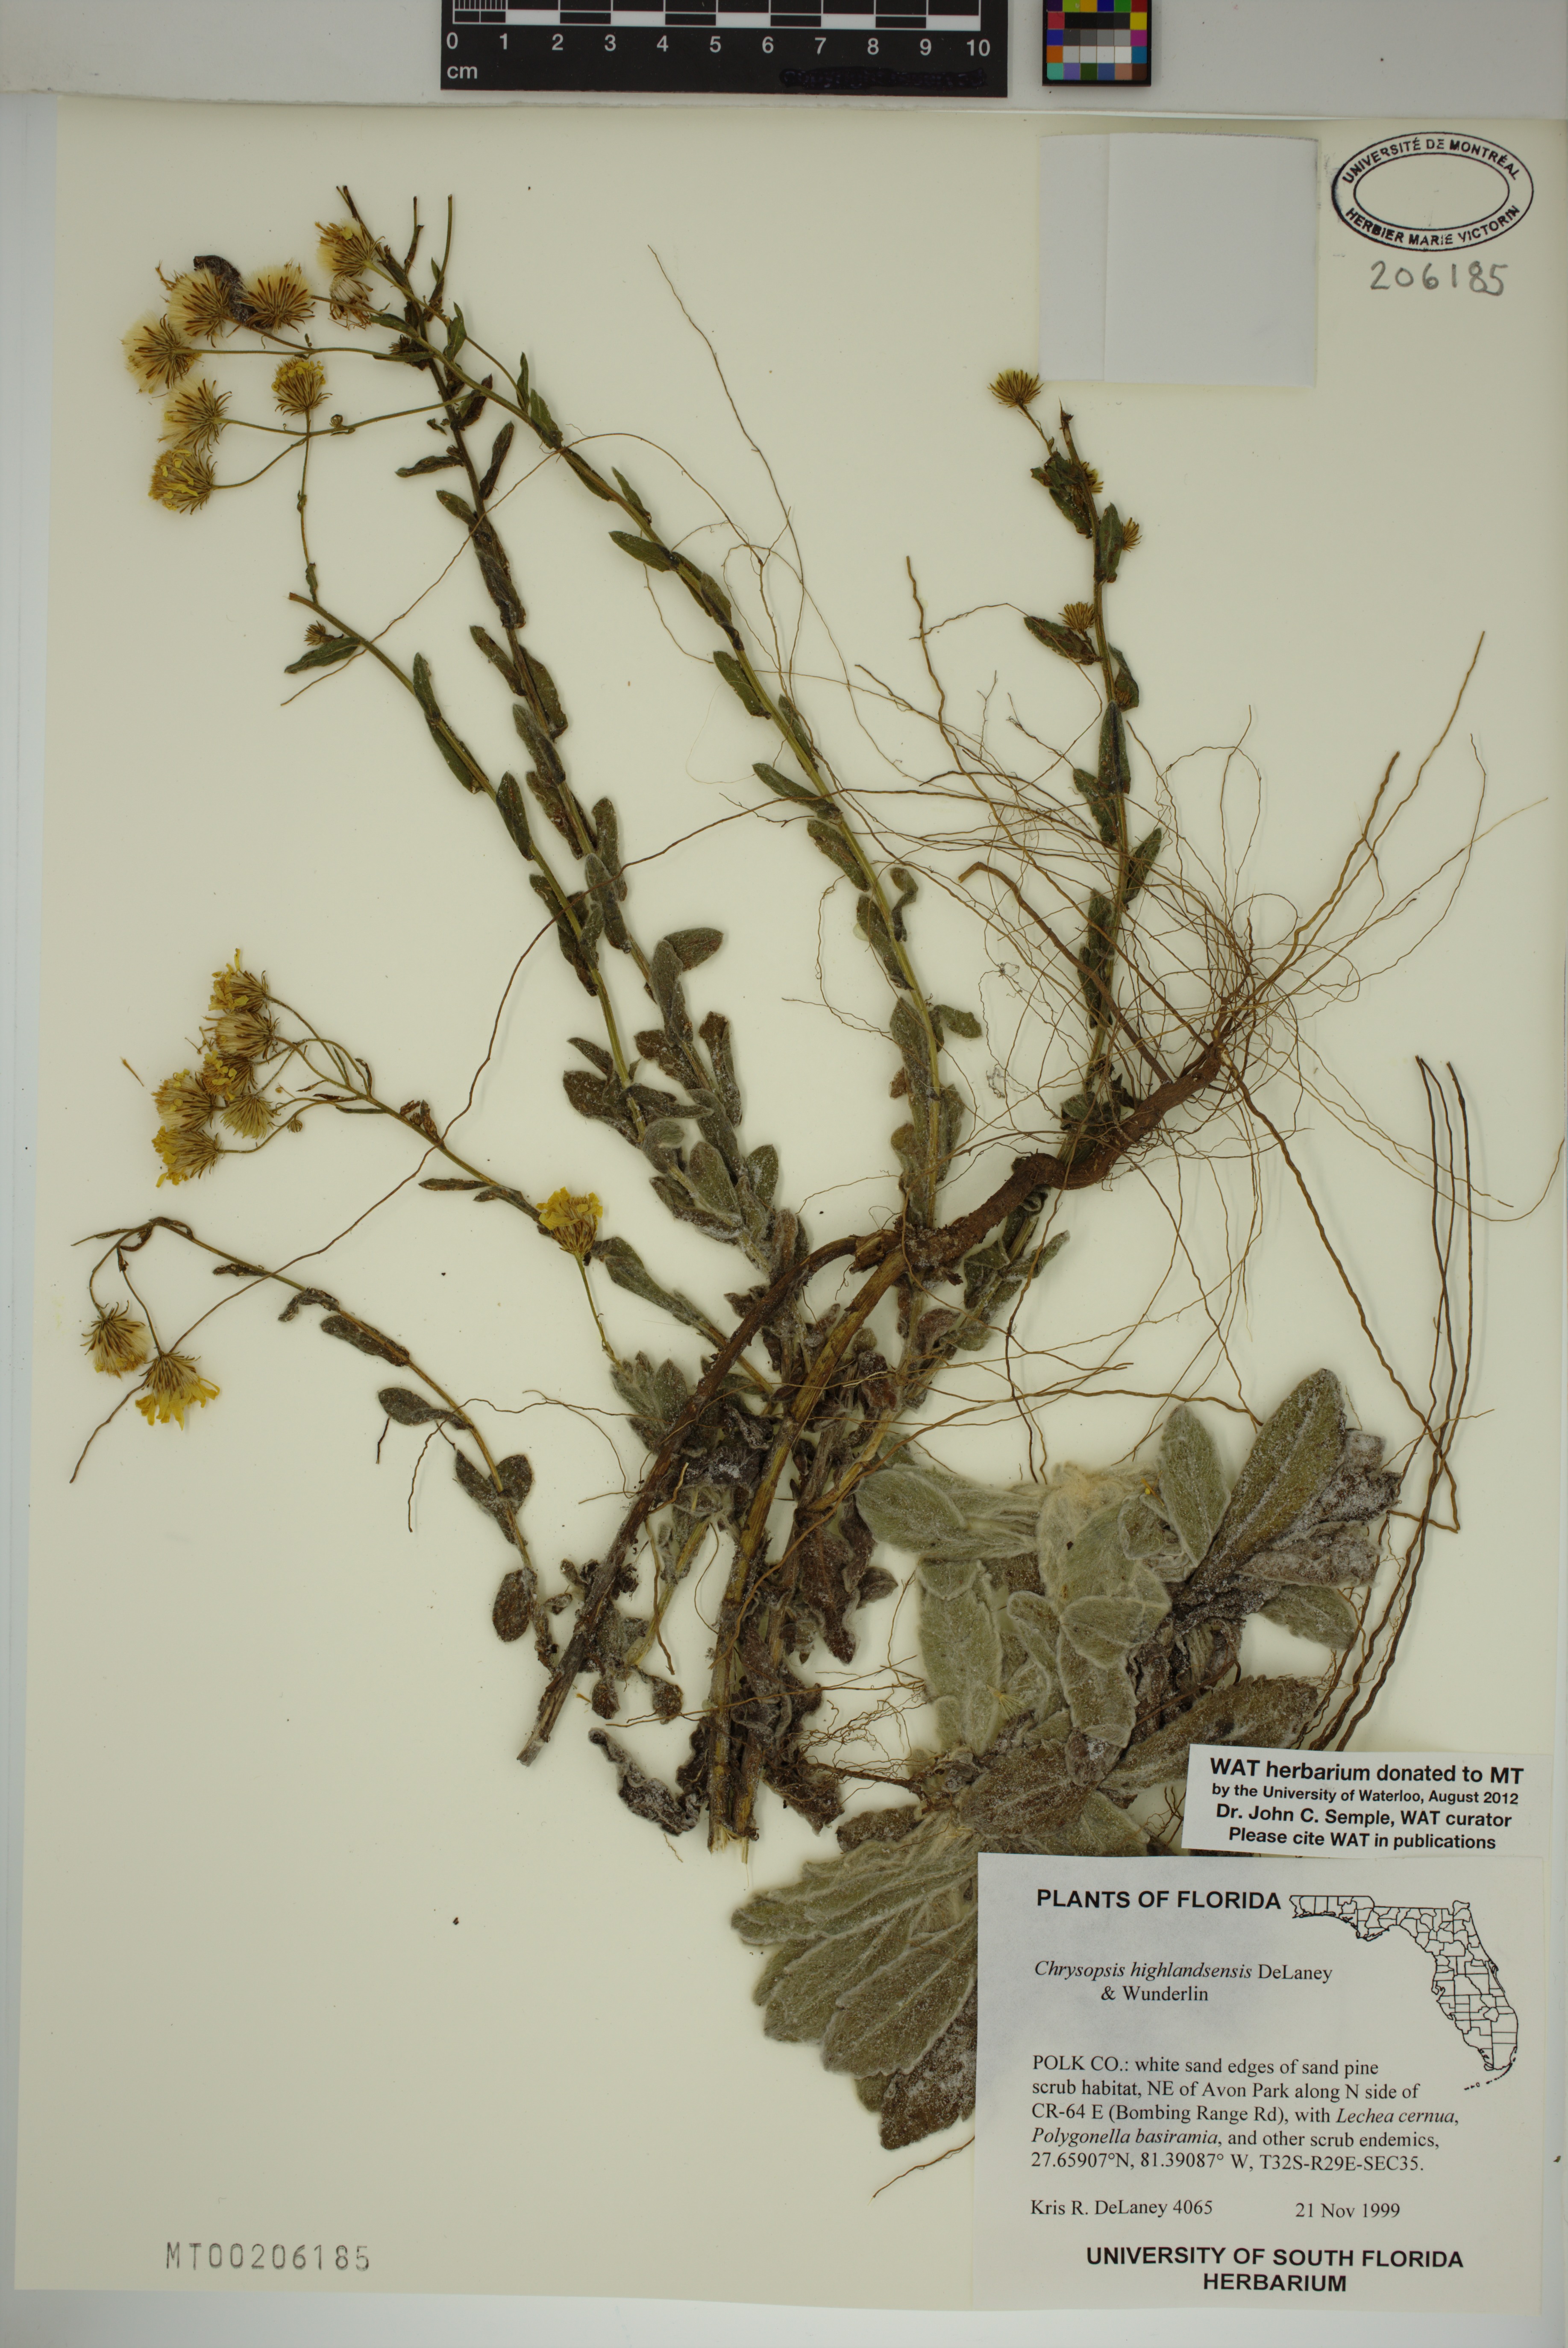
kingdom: Plantae
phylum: Tracheophyta
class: Magnoliopsida
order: Asterales
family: Asteraceae
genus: Chrysopsis
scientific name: Chrysopsis floridana
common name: Florida golden-aster
